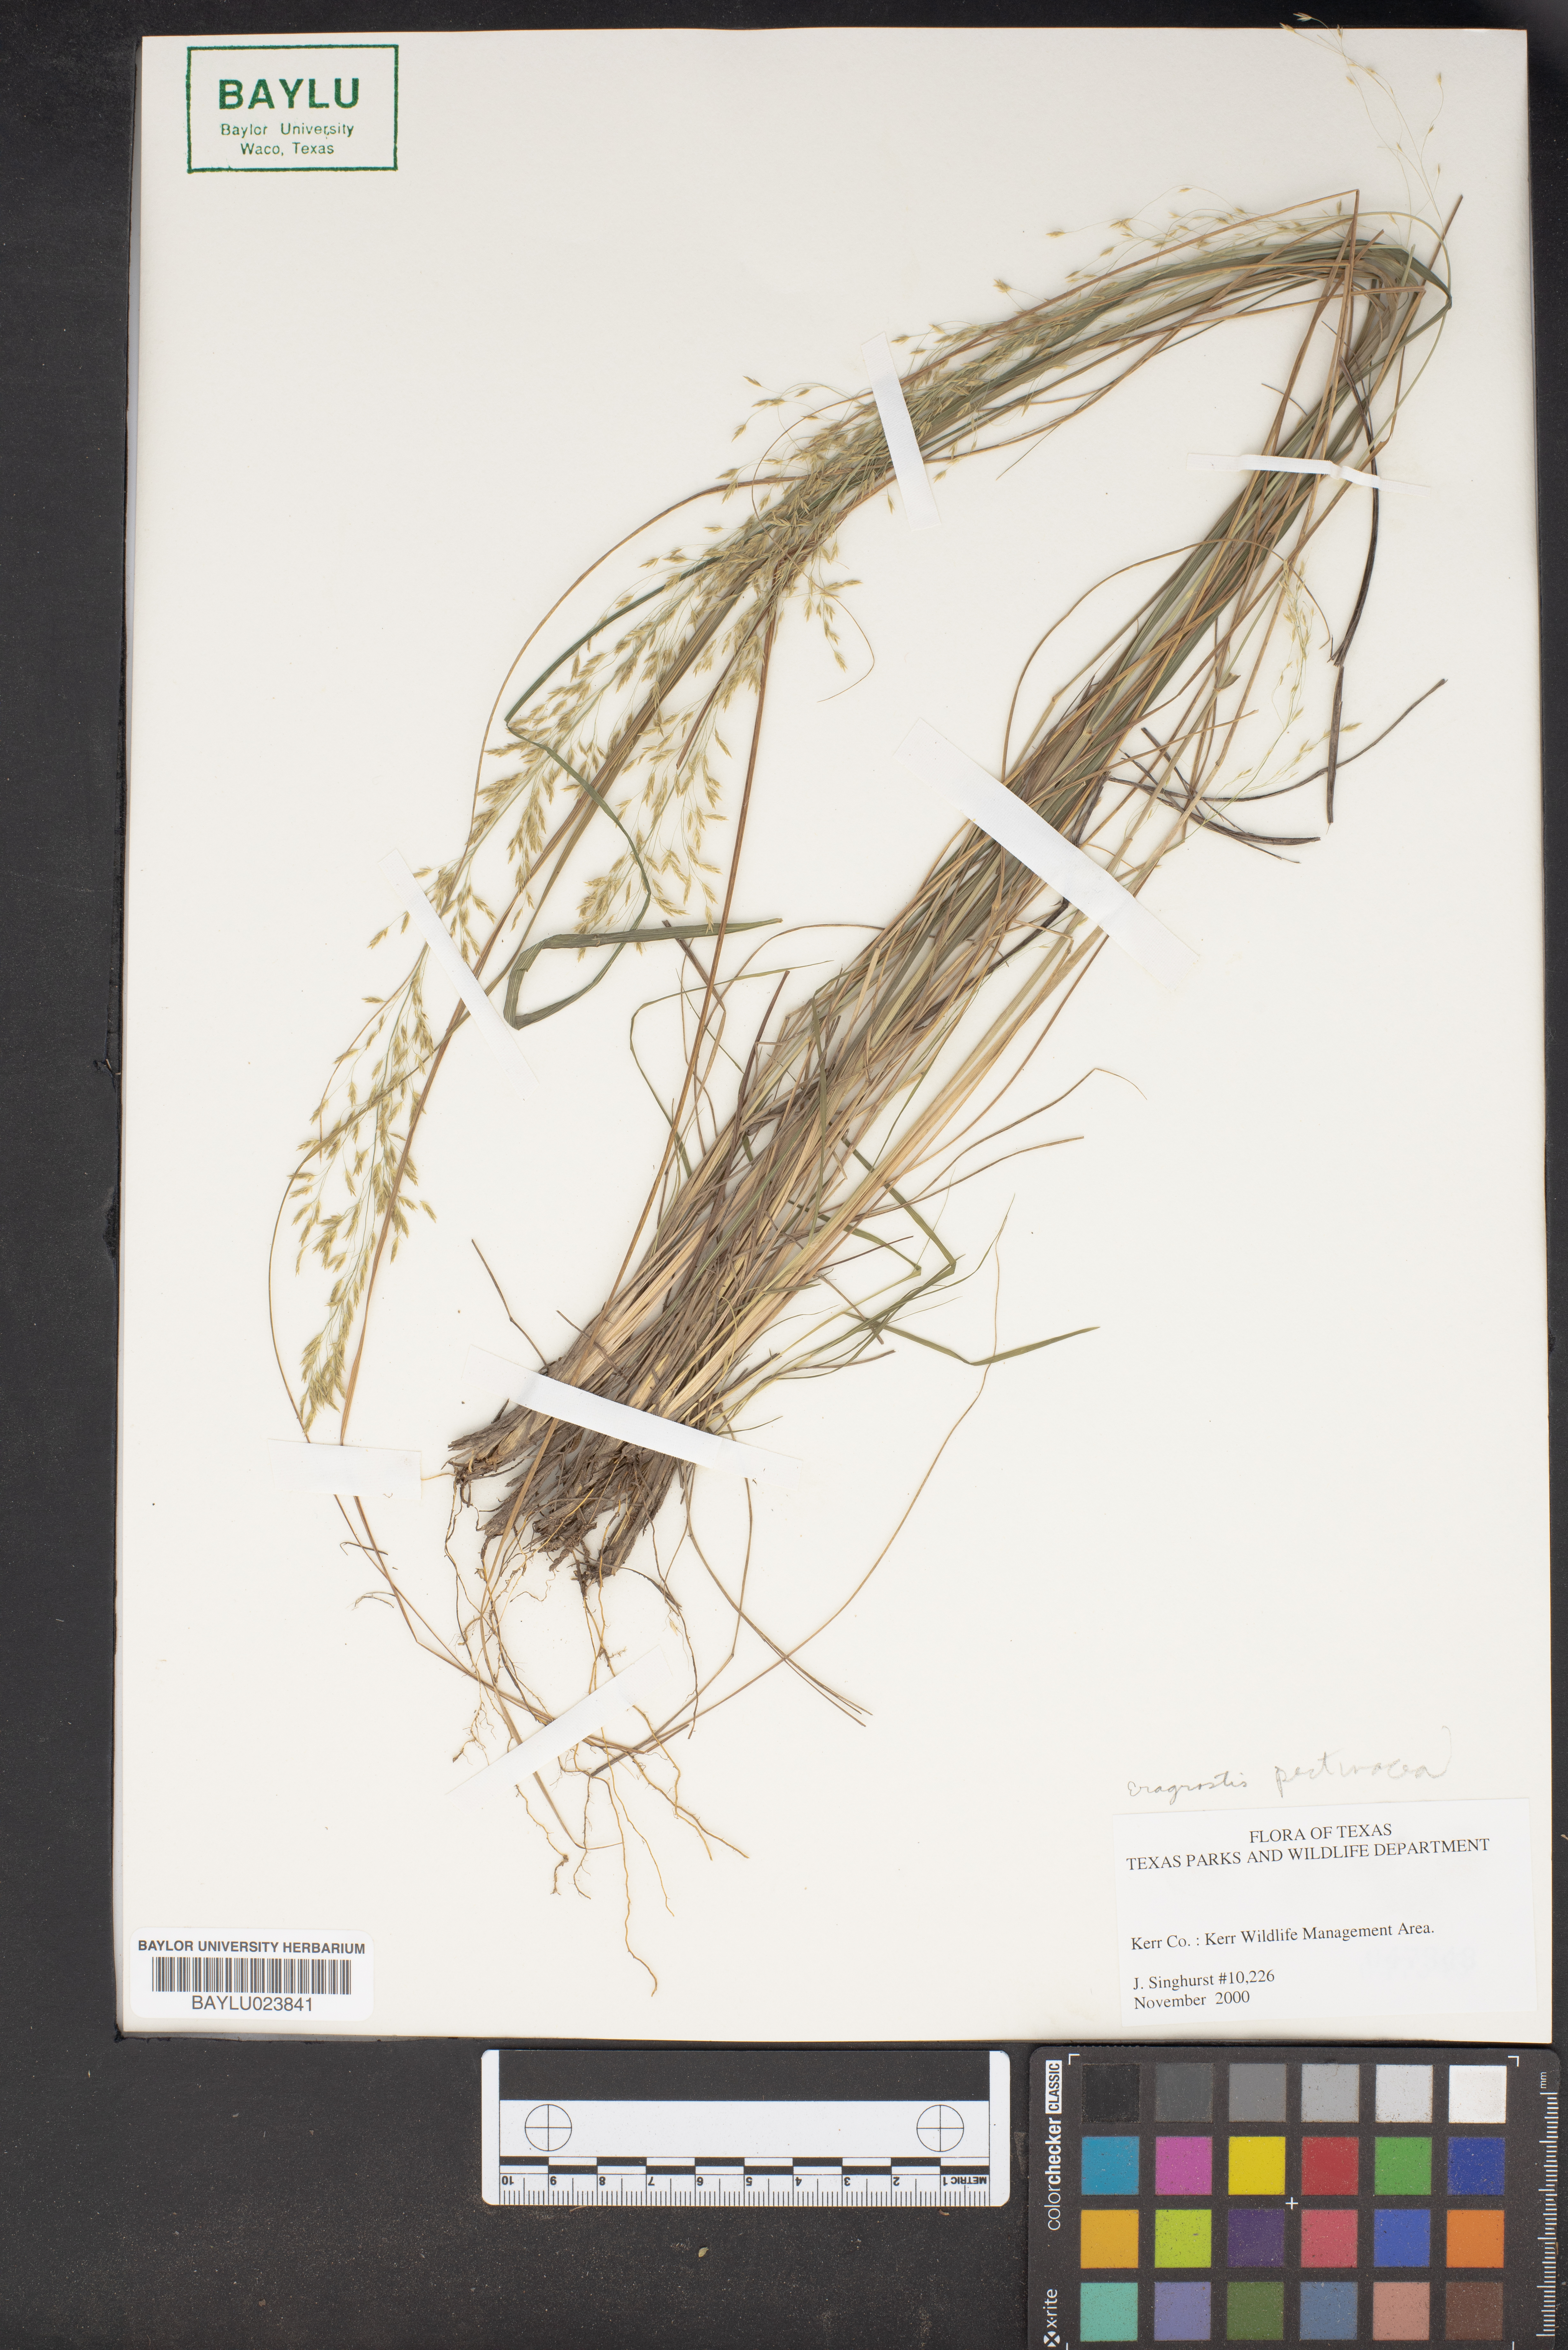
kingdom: Plantae
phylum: Tracheophyta
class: Liliopsida
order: Poales
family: Poaceae
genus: Eragrostis
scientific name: Eragrostis pectinacea
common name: Tufted lovegrass
